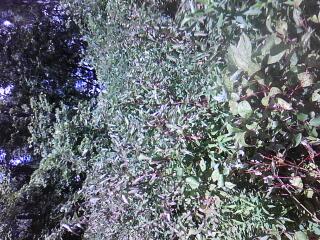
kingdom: Plantae
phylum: Tracheophyta
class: Magnoliopsida
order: Lamiales
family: Lamiaceae
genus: Pycnanthemum
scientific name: Pycnanthemum virginianum
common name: Virginia mountain-mint
